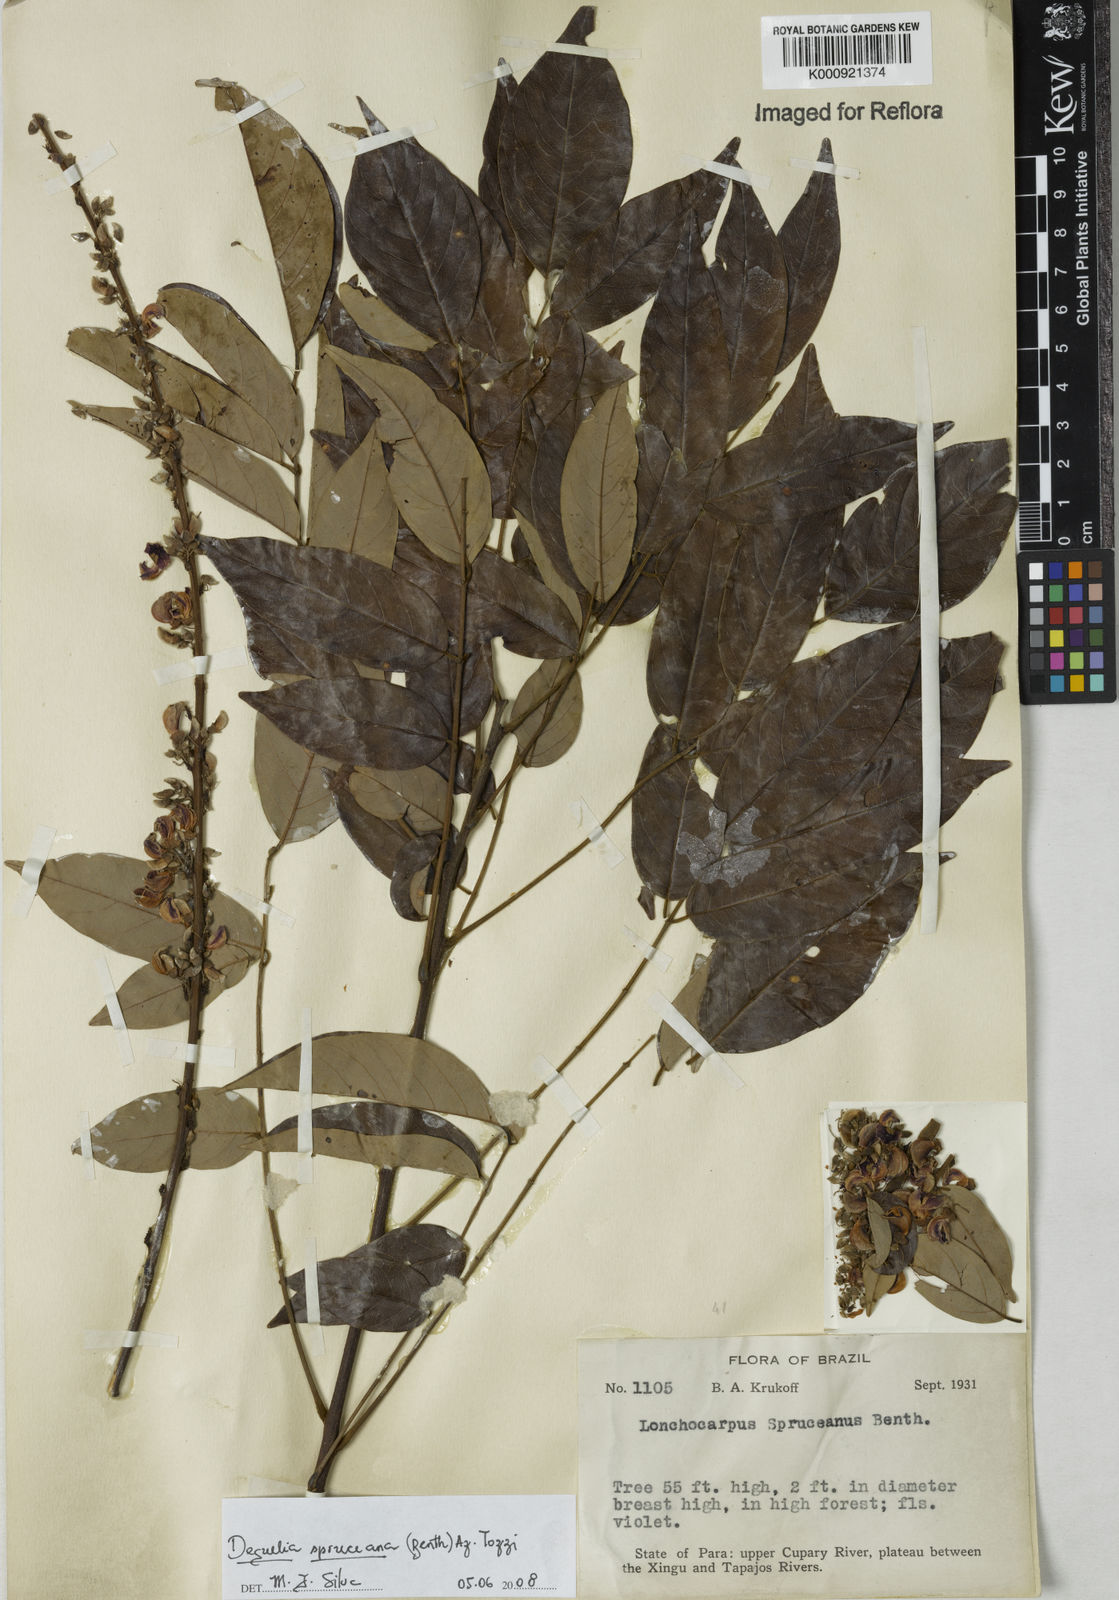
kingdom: Plantae
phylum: Tracheophyta
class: Magnoliopsida
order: Fabales
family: Fabaceae
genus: Deguelia
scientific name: Deguelia spruceana
